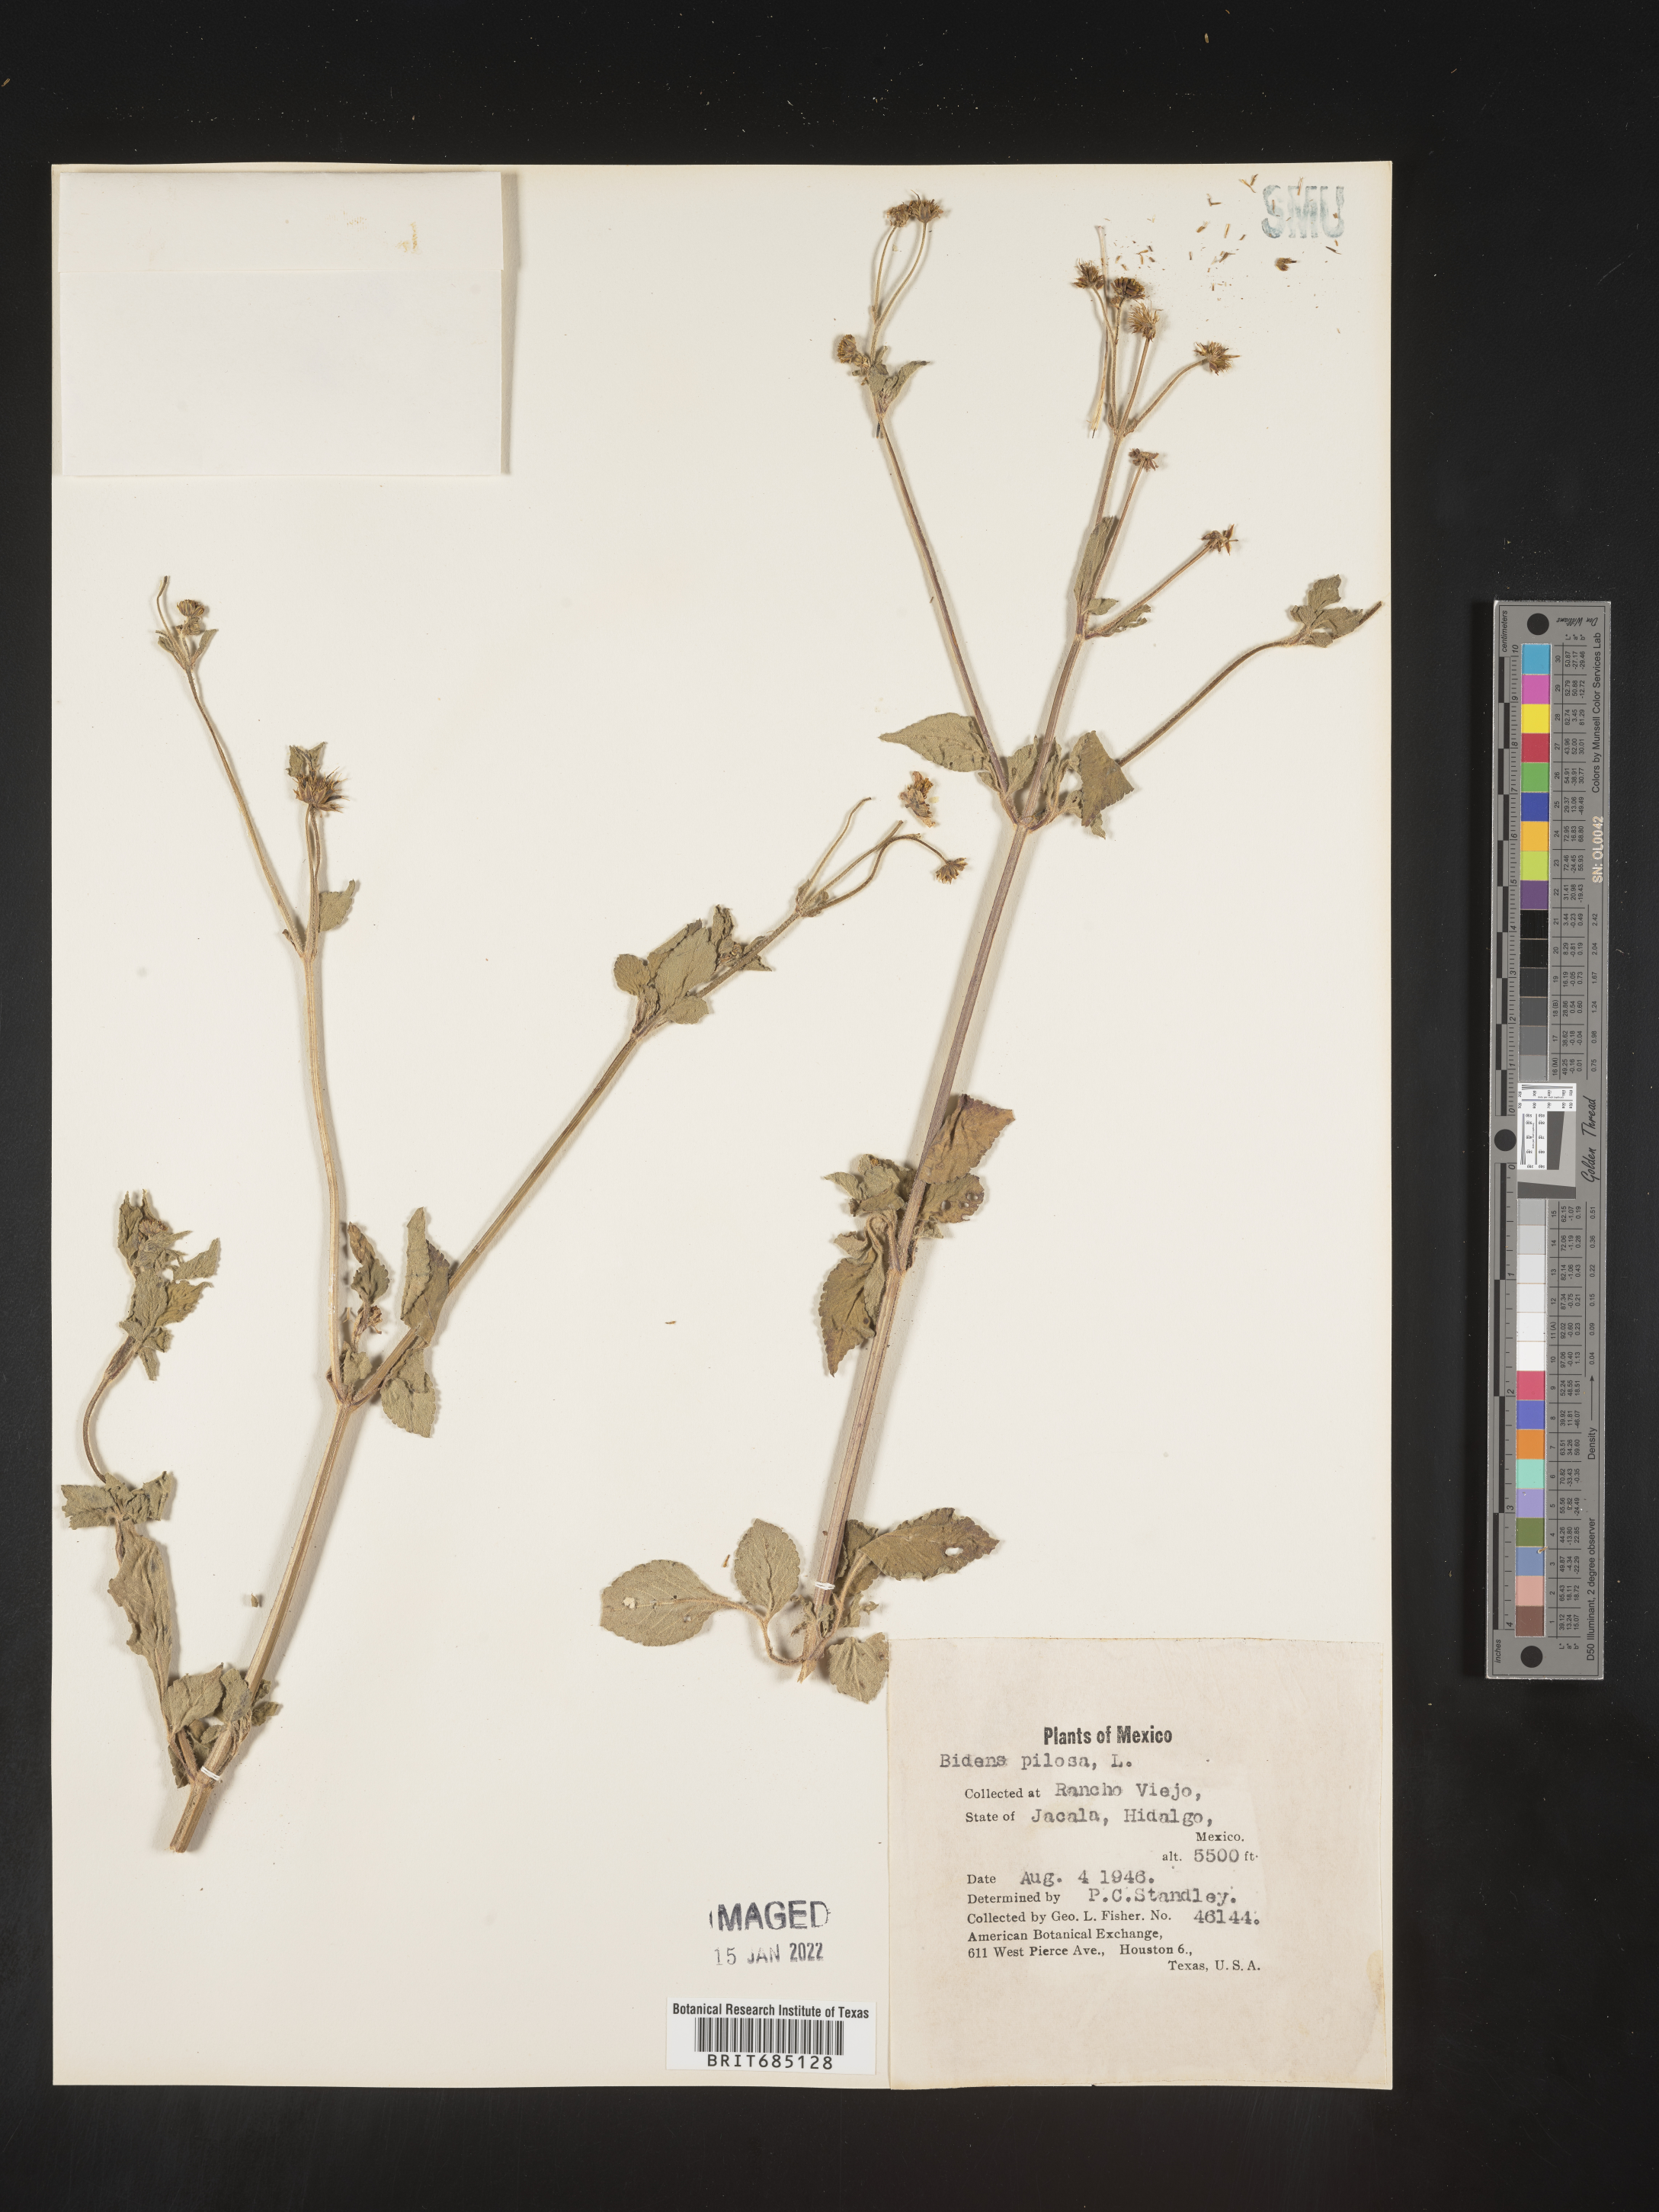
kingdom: Plantae
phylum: Tracheophyta
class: Magnoliopsida
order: Asterales
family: Asteraceae
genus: Bidens
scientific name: Bidens
